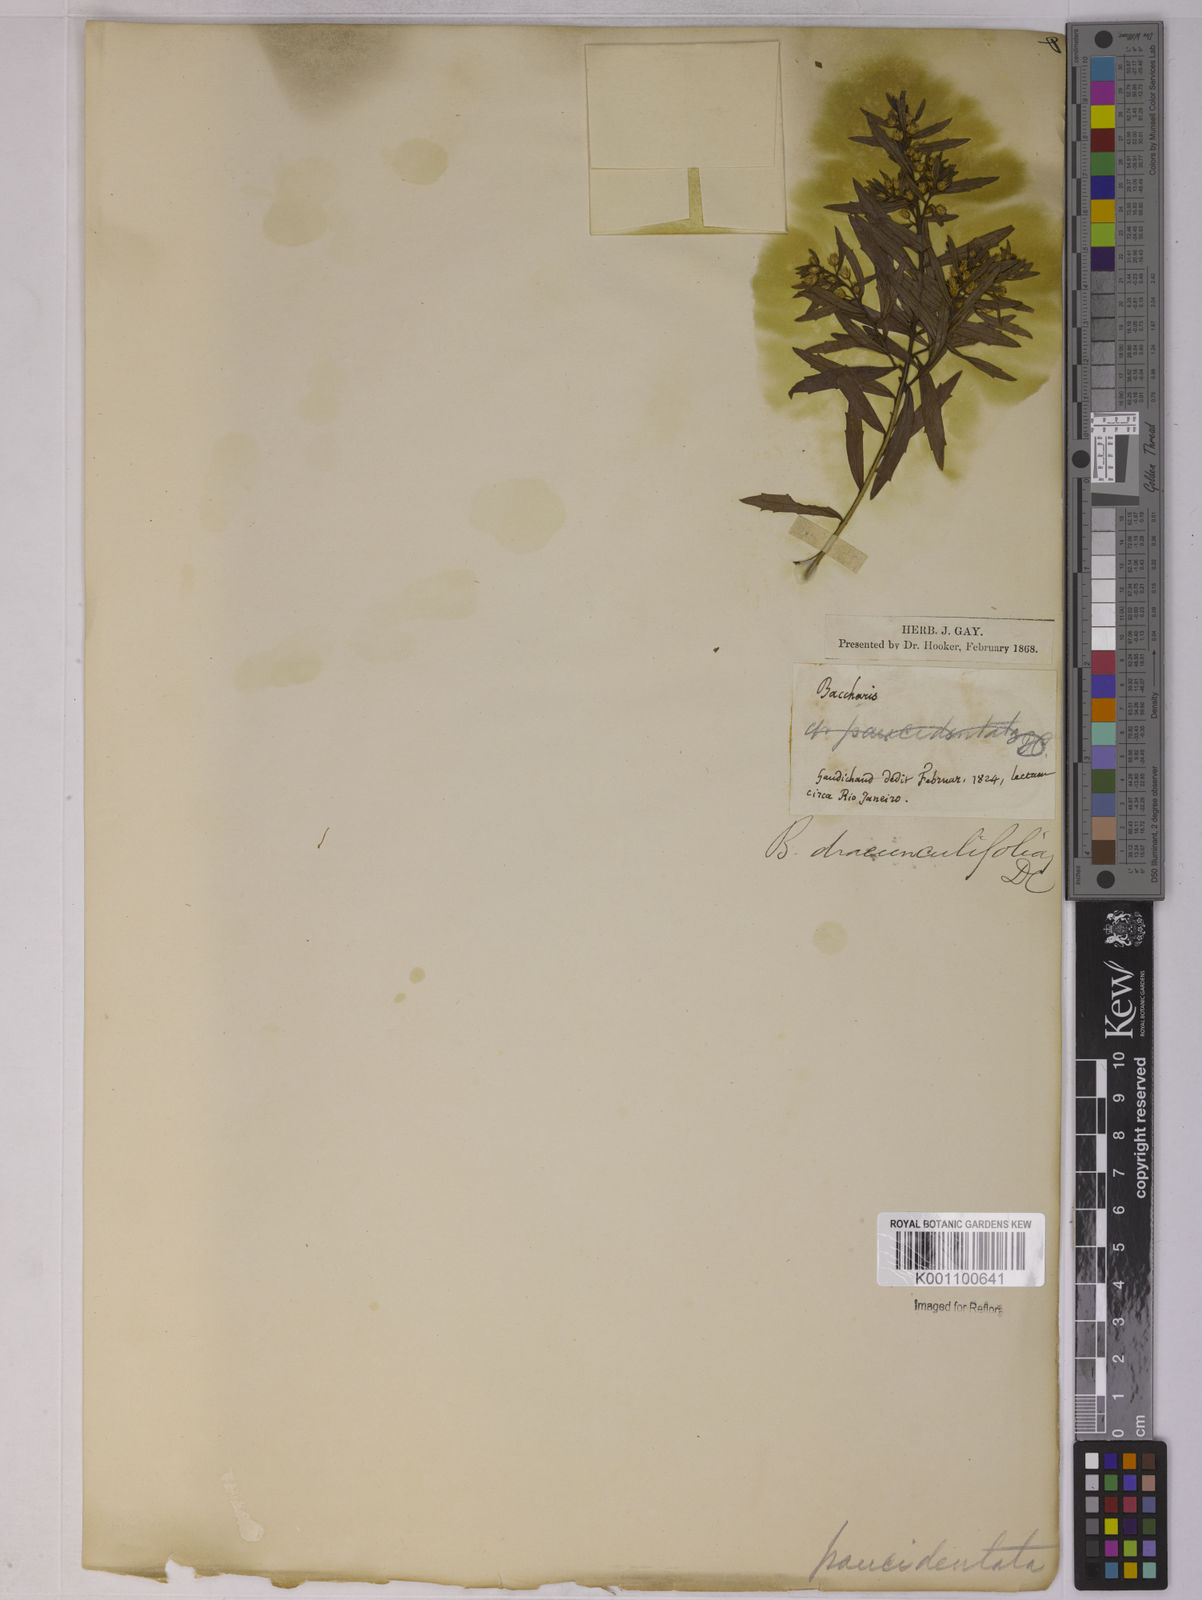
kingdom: Plantae
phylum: Tracheophyta
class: Magnoliopsida
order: Asterales
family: Asteraceae
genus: Baccharis
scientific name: Baccharis dracunculifolia
